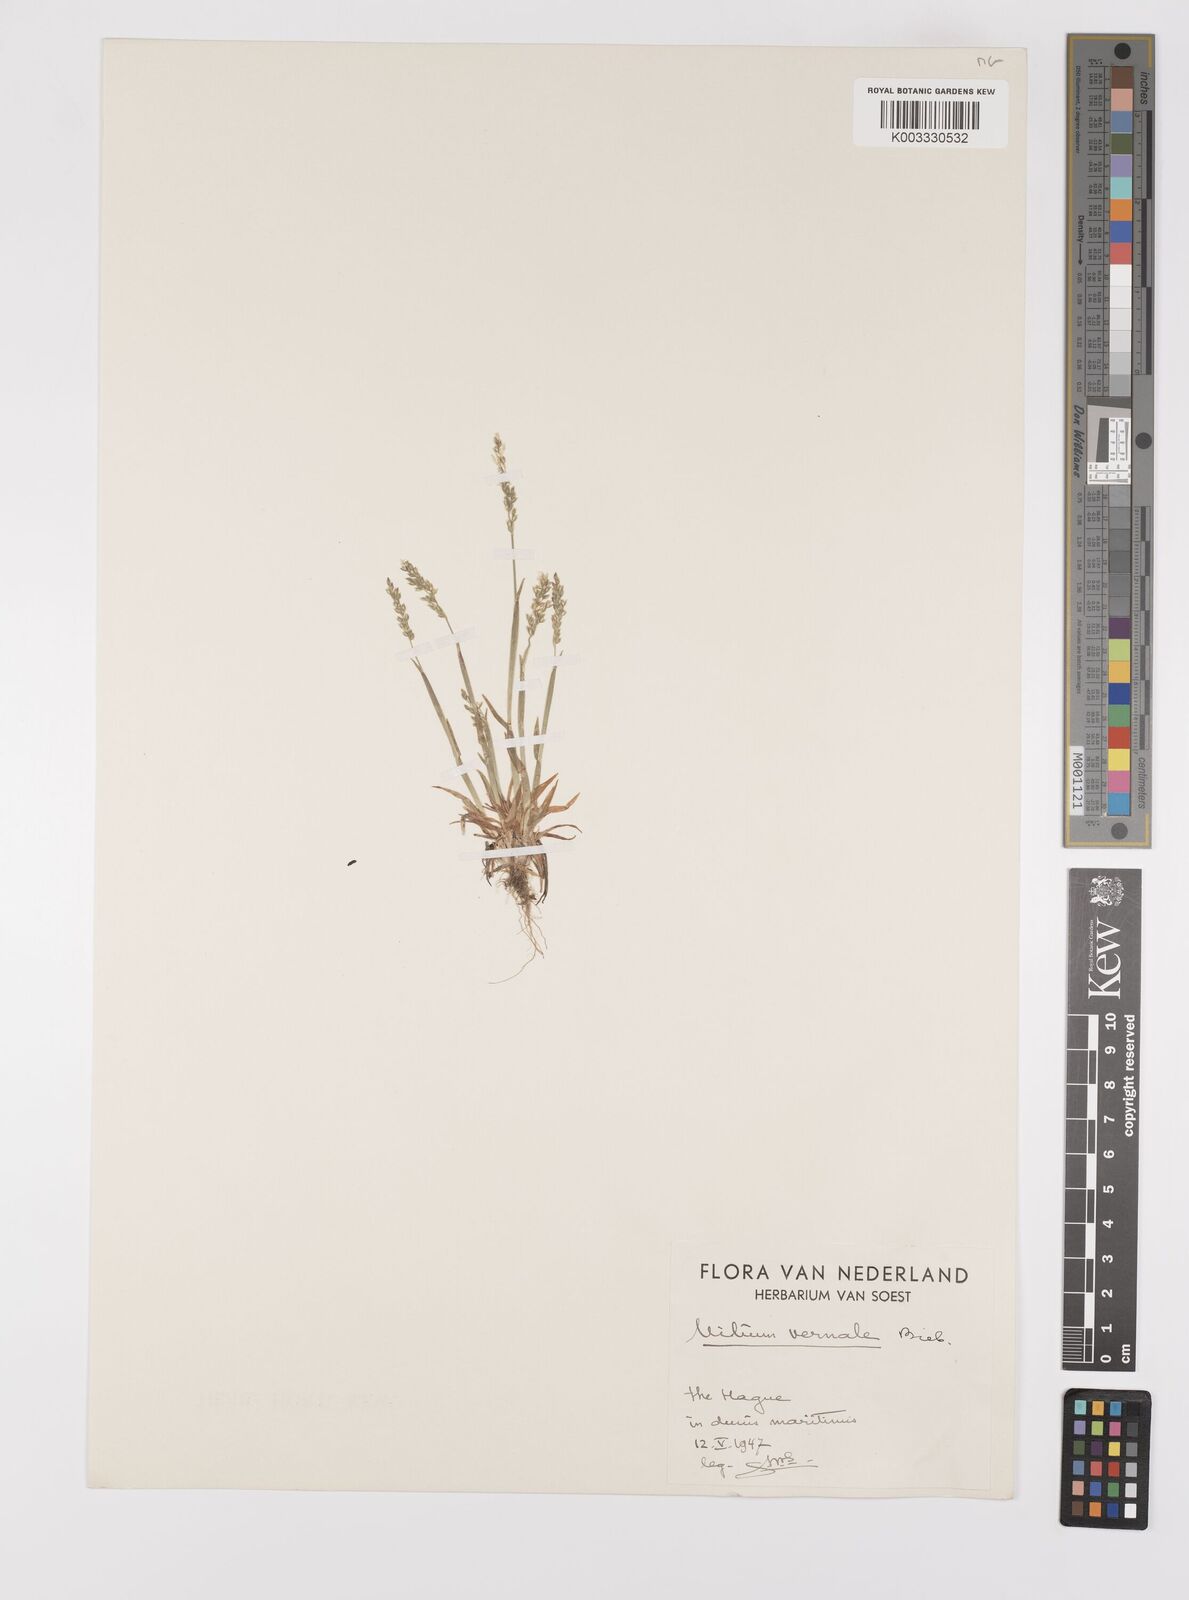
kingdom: Plantae
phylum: Tracheophyta
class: Liliopsida
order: Poales
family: Poaceae
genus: Milium
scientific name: Milium vernale
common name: Early millet
